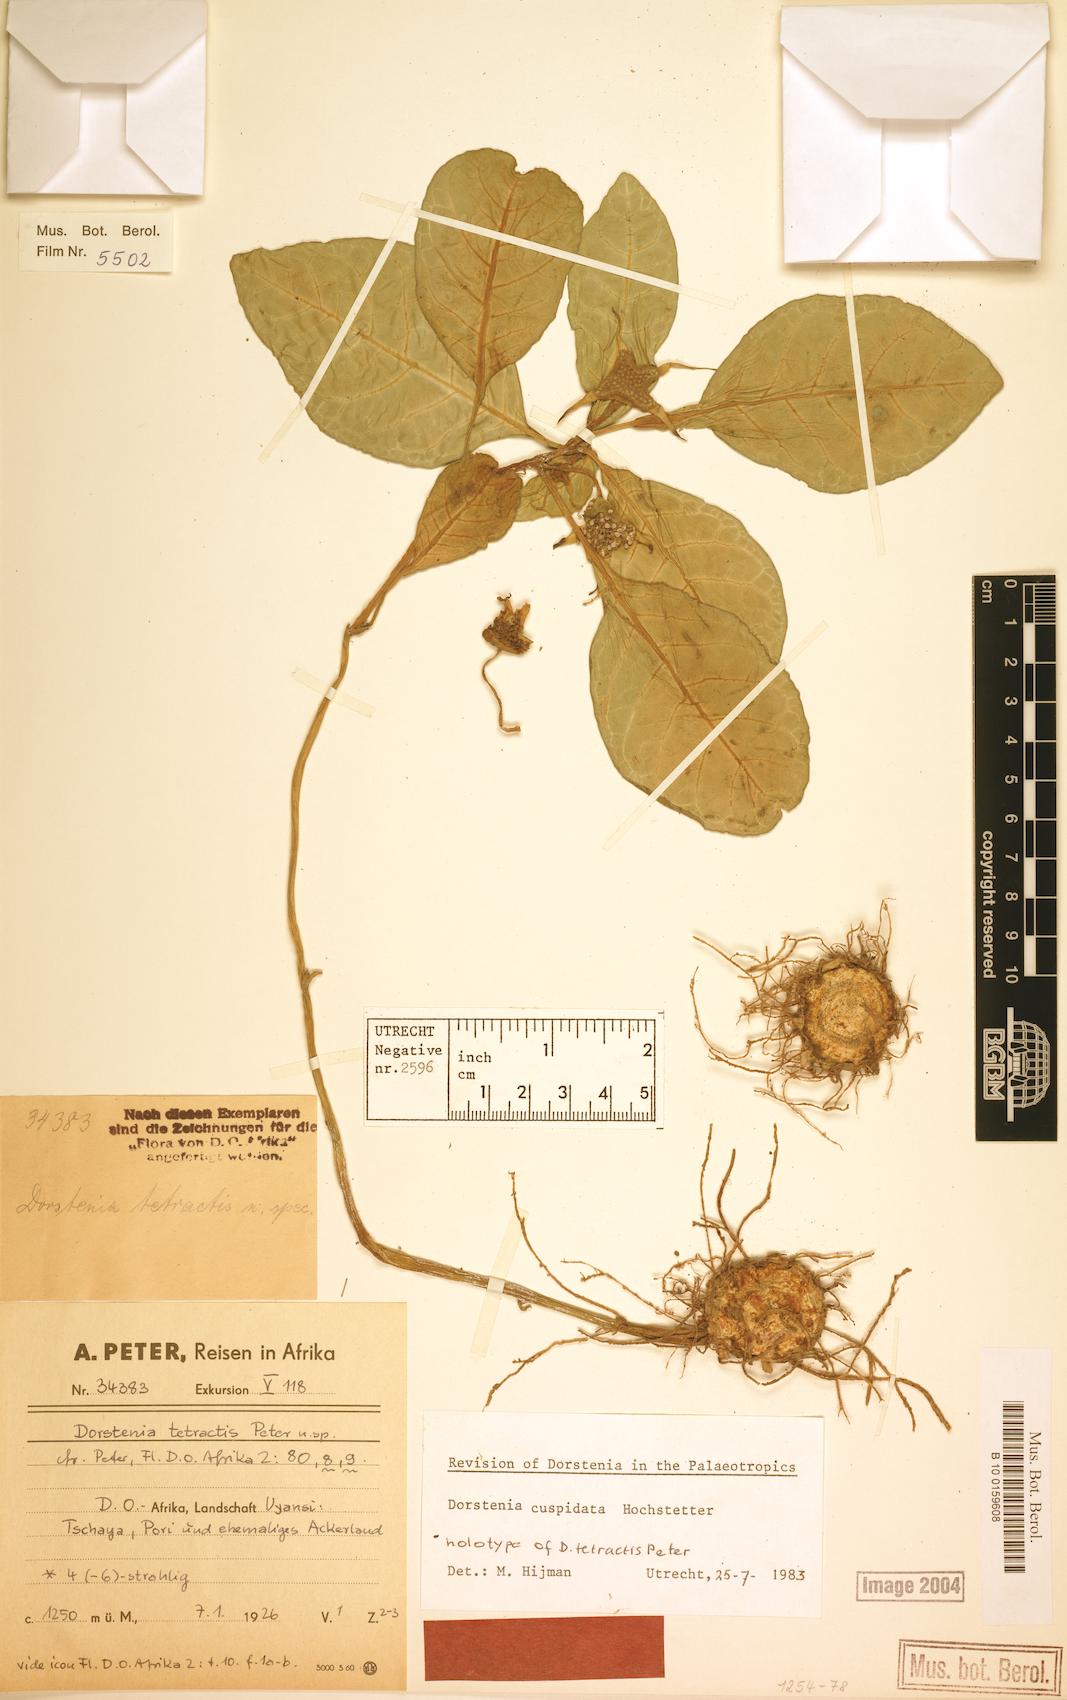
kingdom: Plantae
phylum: Tracheophyta
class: Magnoliopsida
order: Rosales
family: Moraceae
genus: Dorstenia
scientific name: Dorstenia cuspidata
